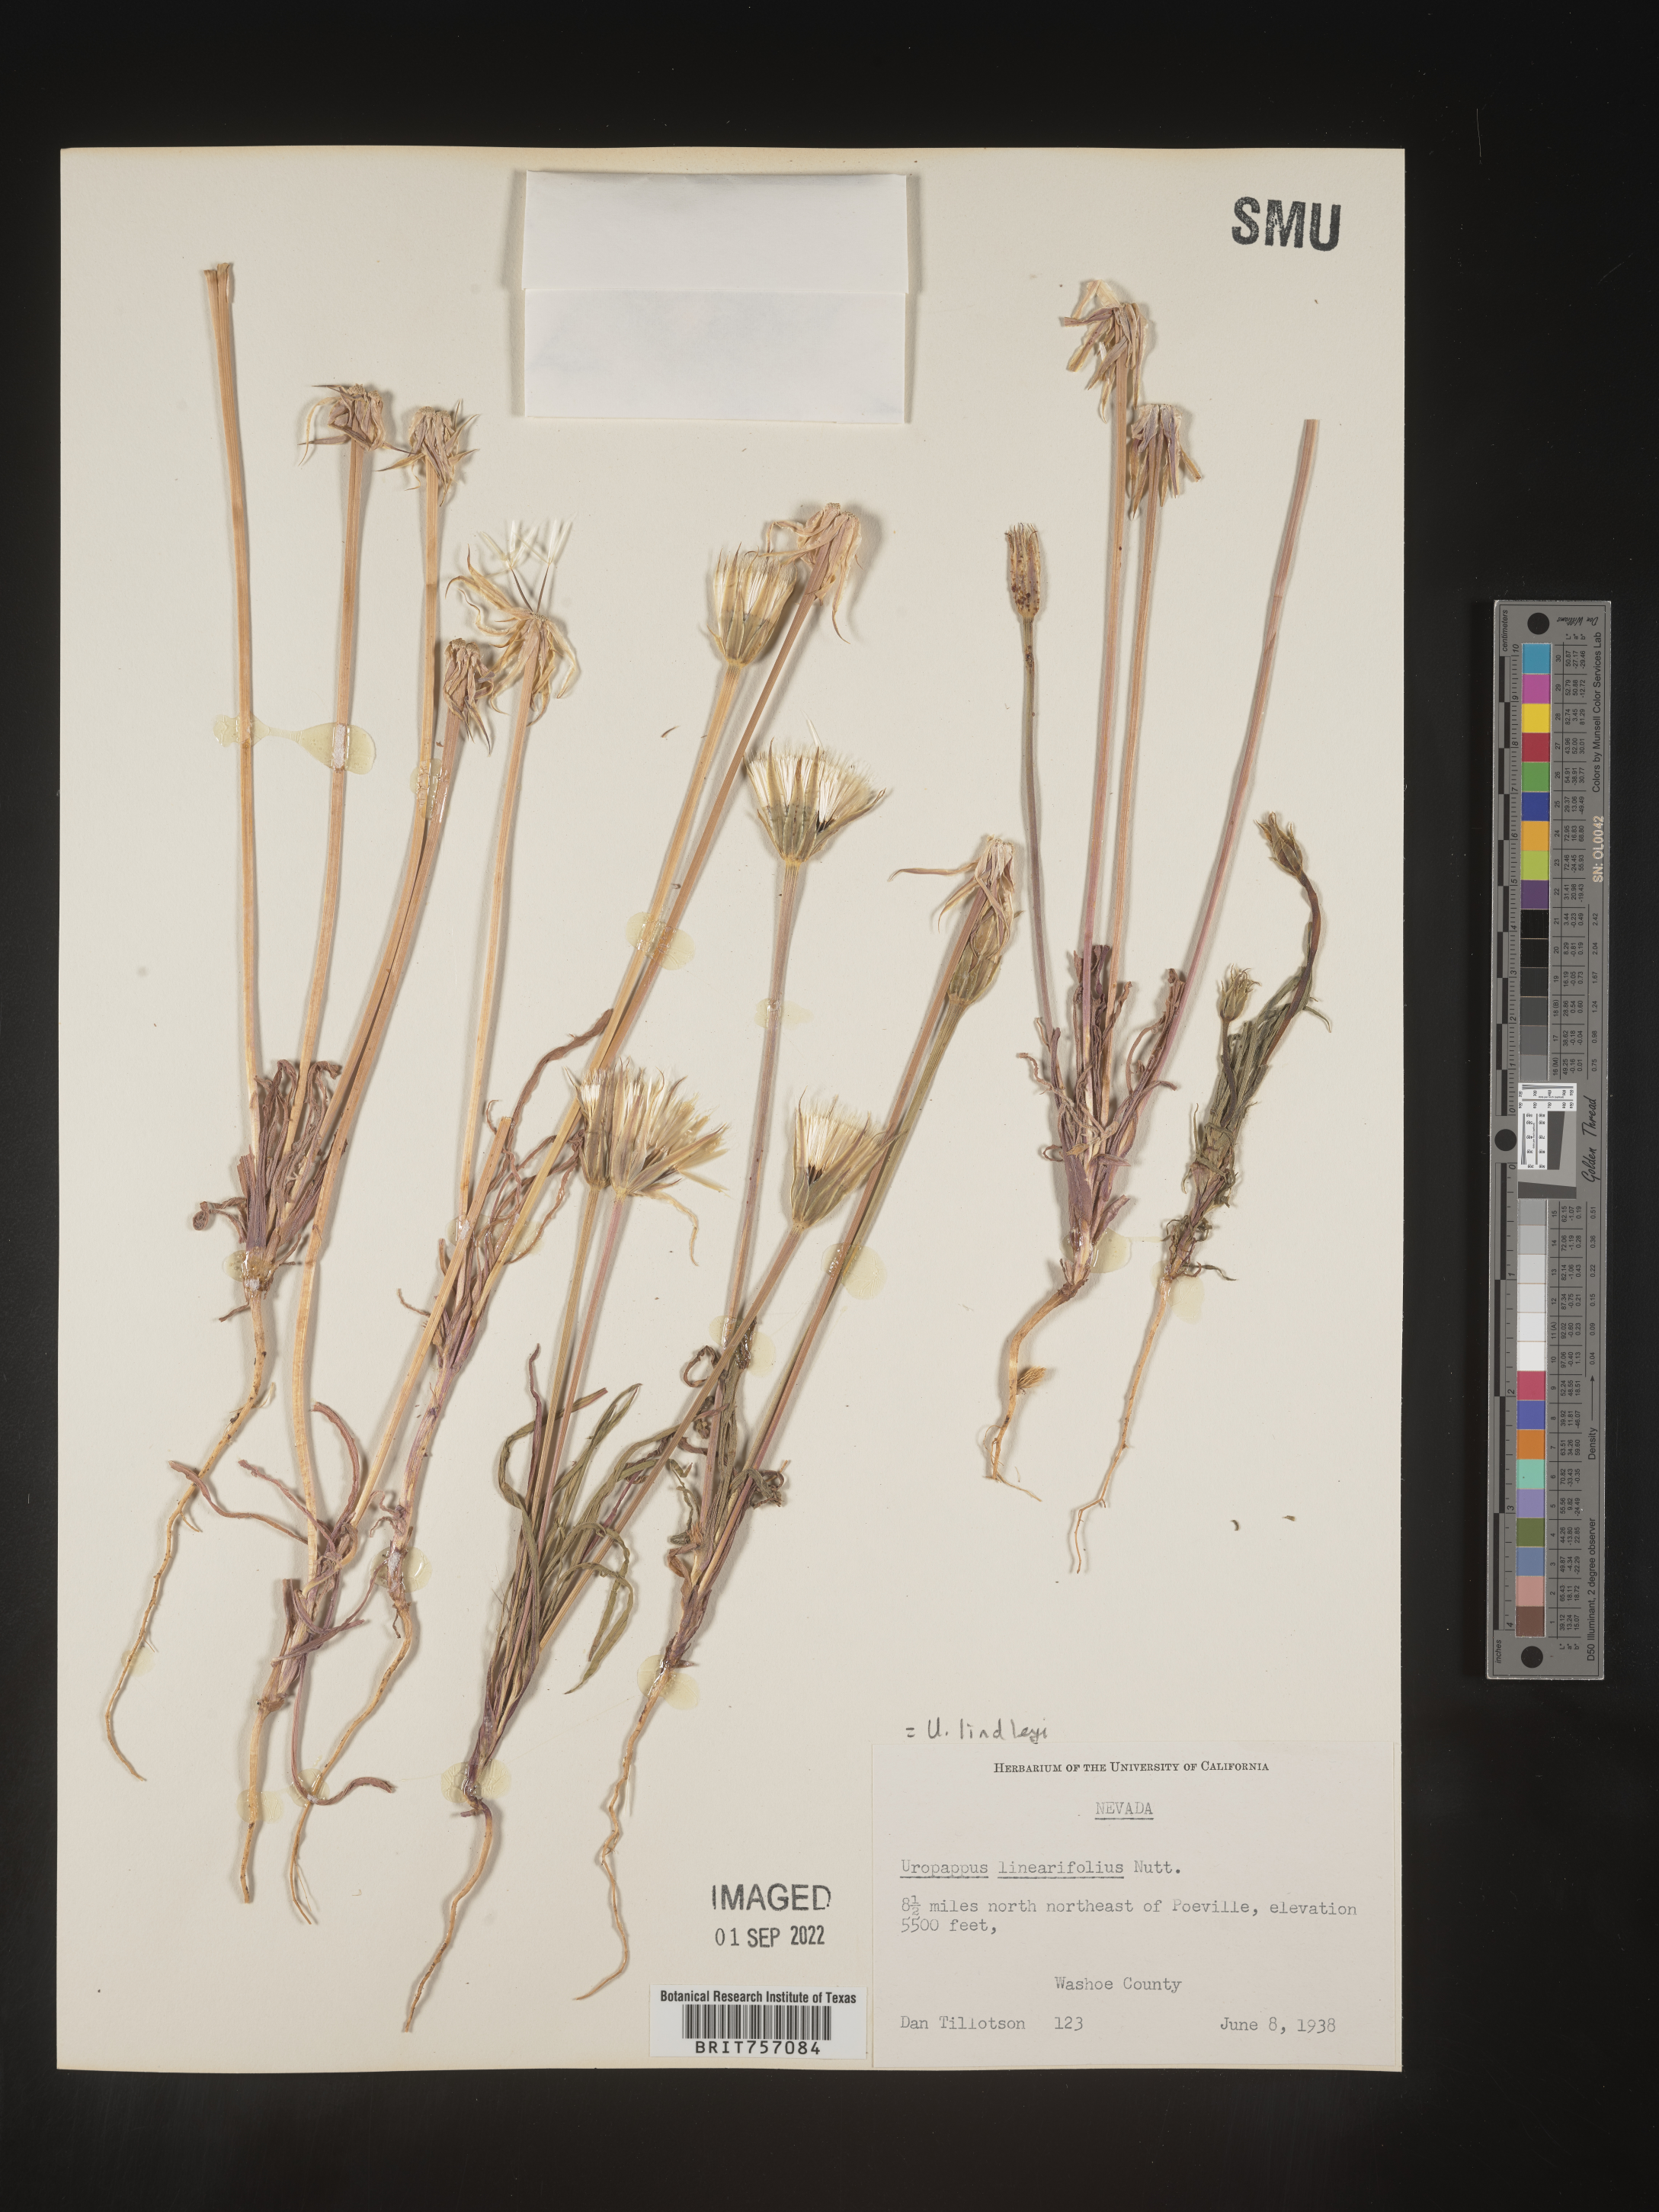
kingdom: Plantae
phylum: Tracheophyta
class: Magnoliopsida
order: Asterales
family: Asteraceae
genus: Microseris
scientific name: Microseris
